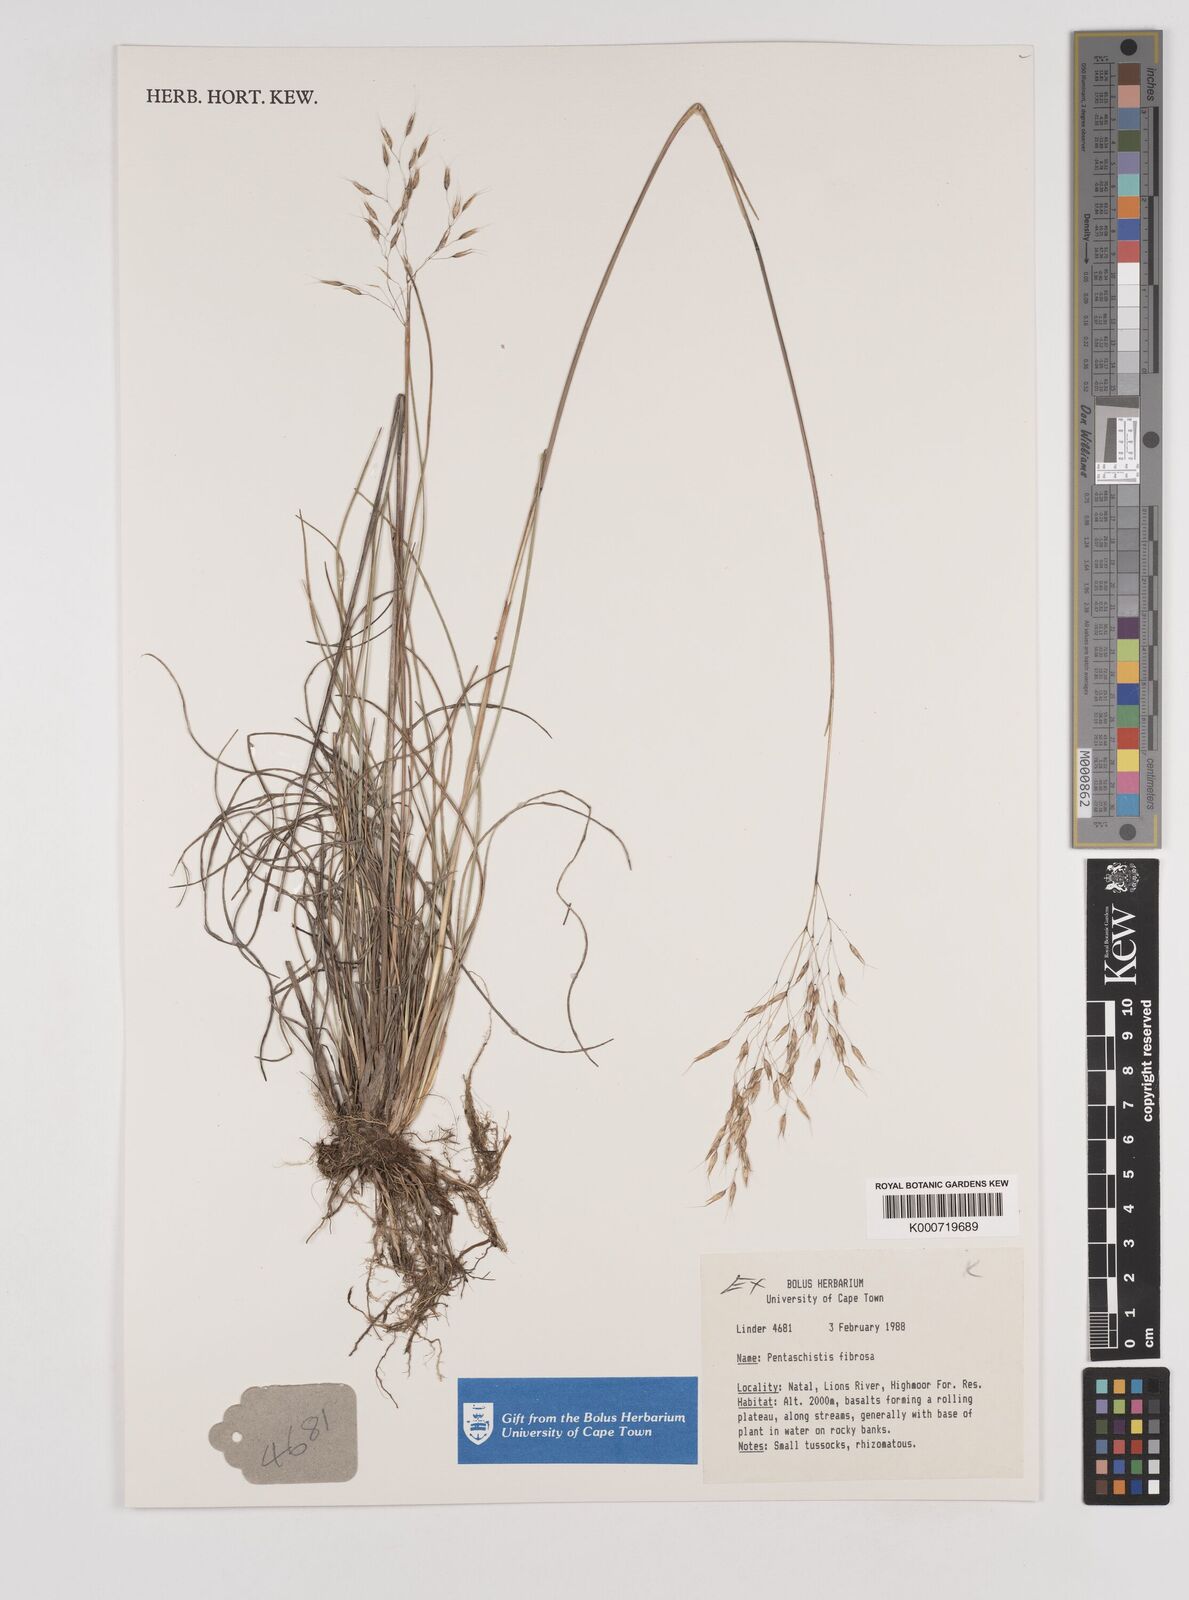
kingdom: Plantae
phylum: Tracheophyta
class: Liliopsida
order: Poales
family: Poaceae
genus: Pentameris
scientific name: Pentameris tysonii
